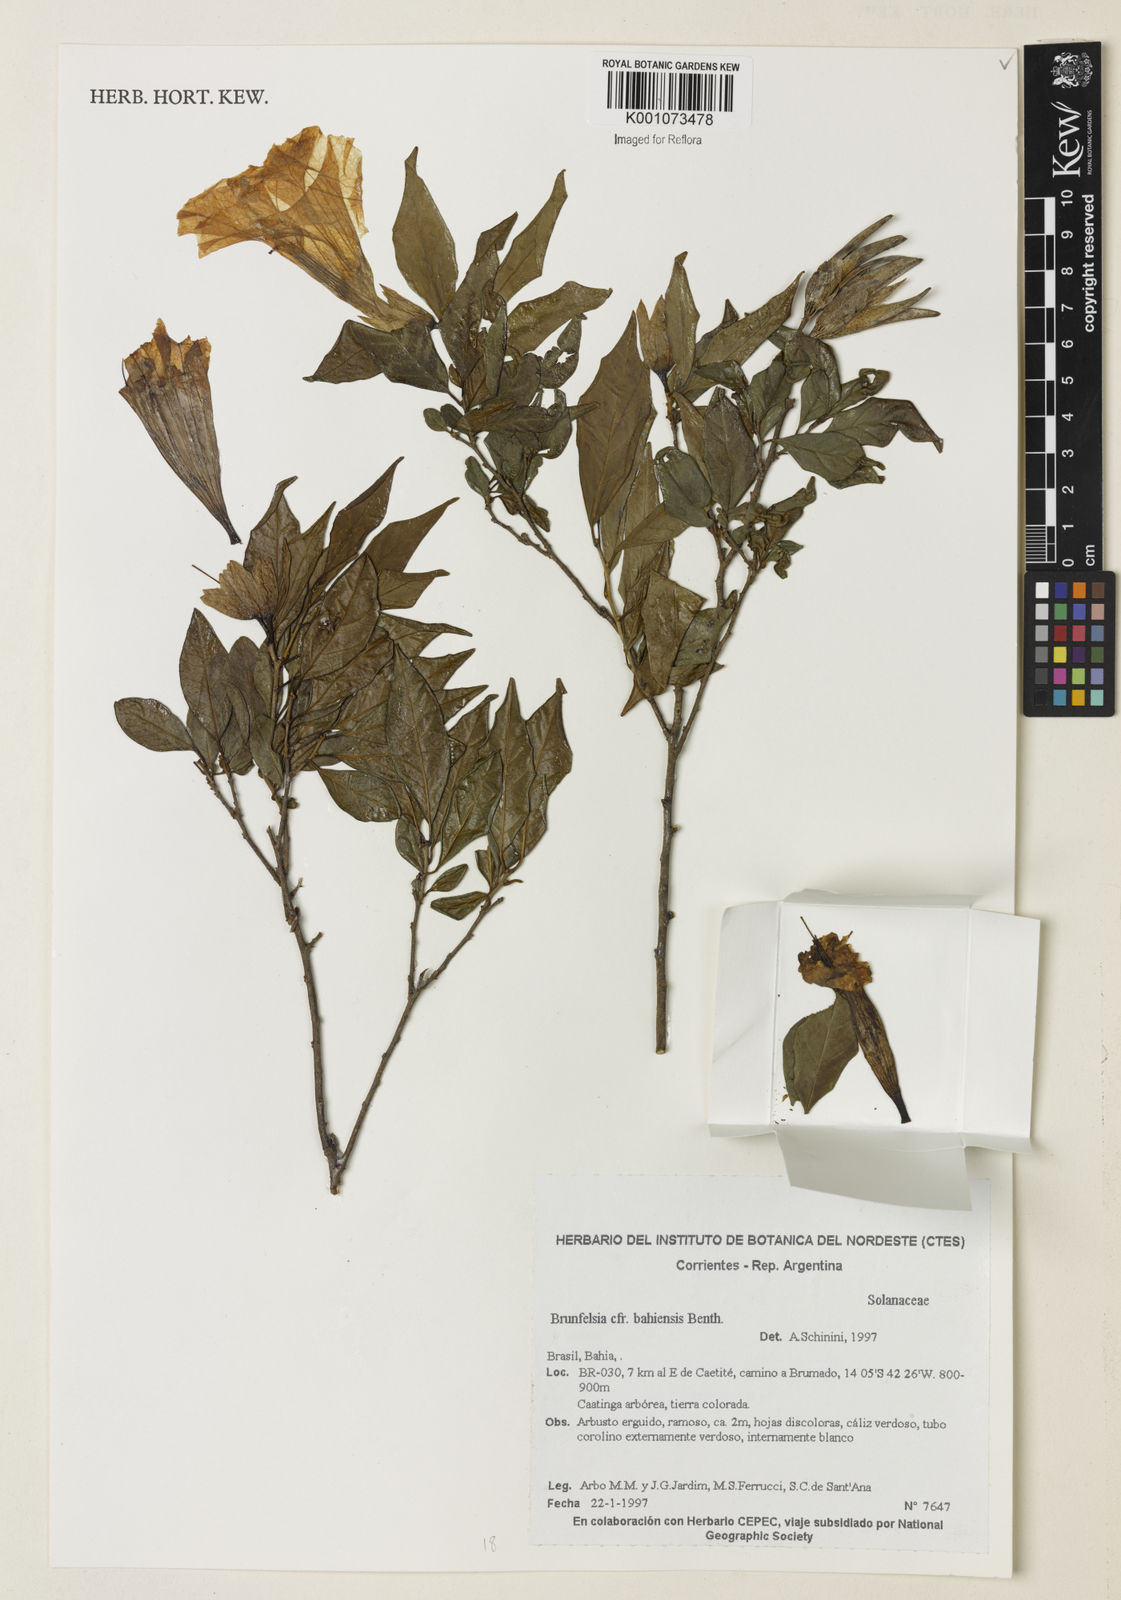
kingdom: Plantae
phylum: Tracheophyta
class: Magnoliopsida
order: Solanales
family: Solanaceae
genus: Brunfelsia
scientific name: Brunfelsia bahiensis
